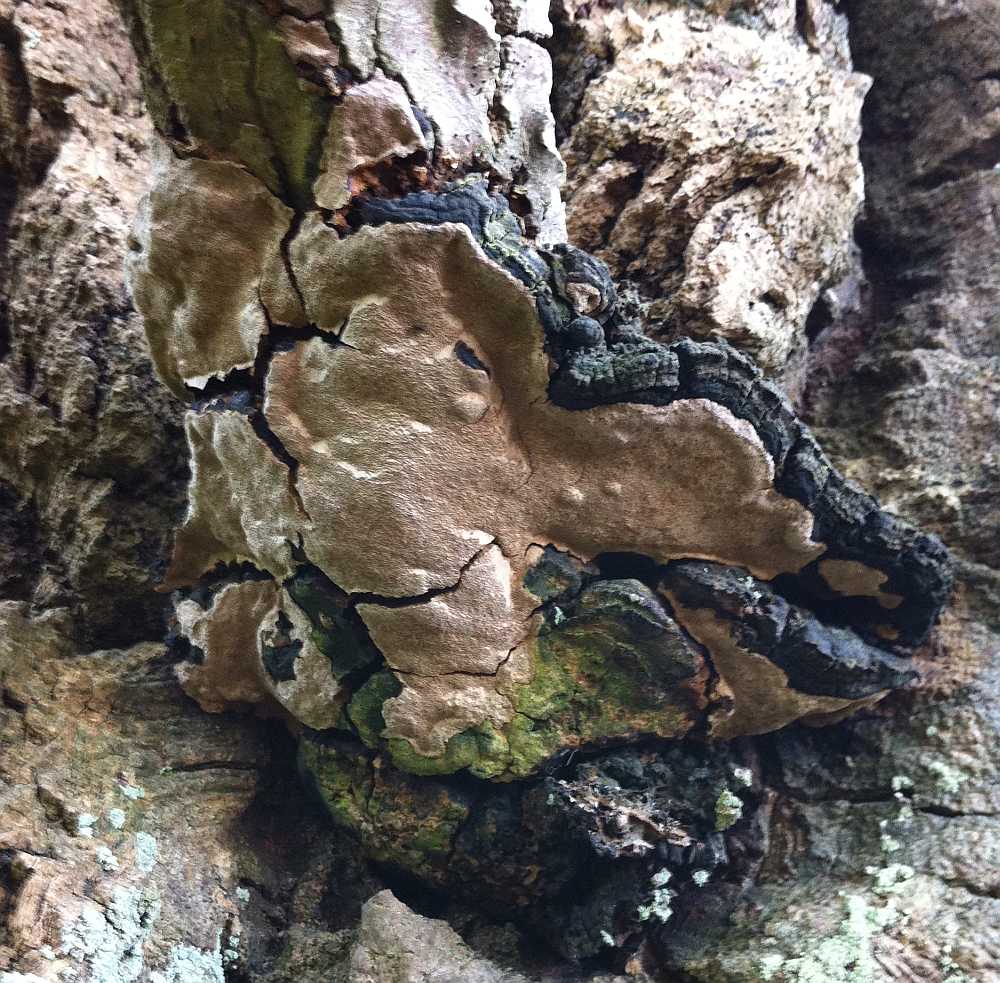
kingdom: Fungi
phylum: Basidiomycota
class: Agaricomycetes
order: Hymenochaetales
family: Hymenochaetaceae
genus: Phellinus
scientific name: Phellinus tremulae
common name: aspe-ildporesvamp
